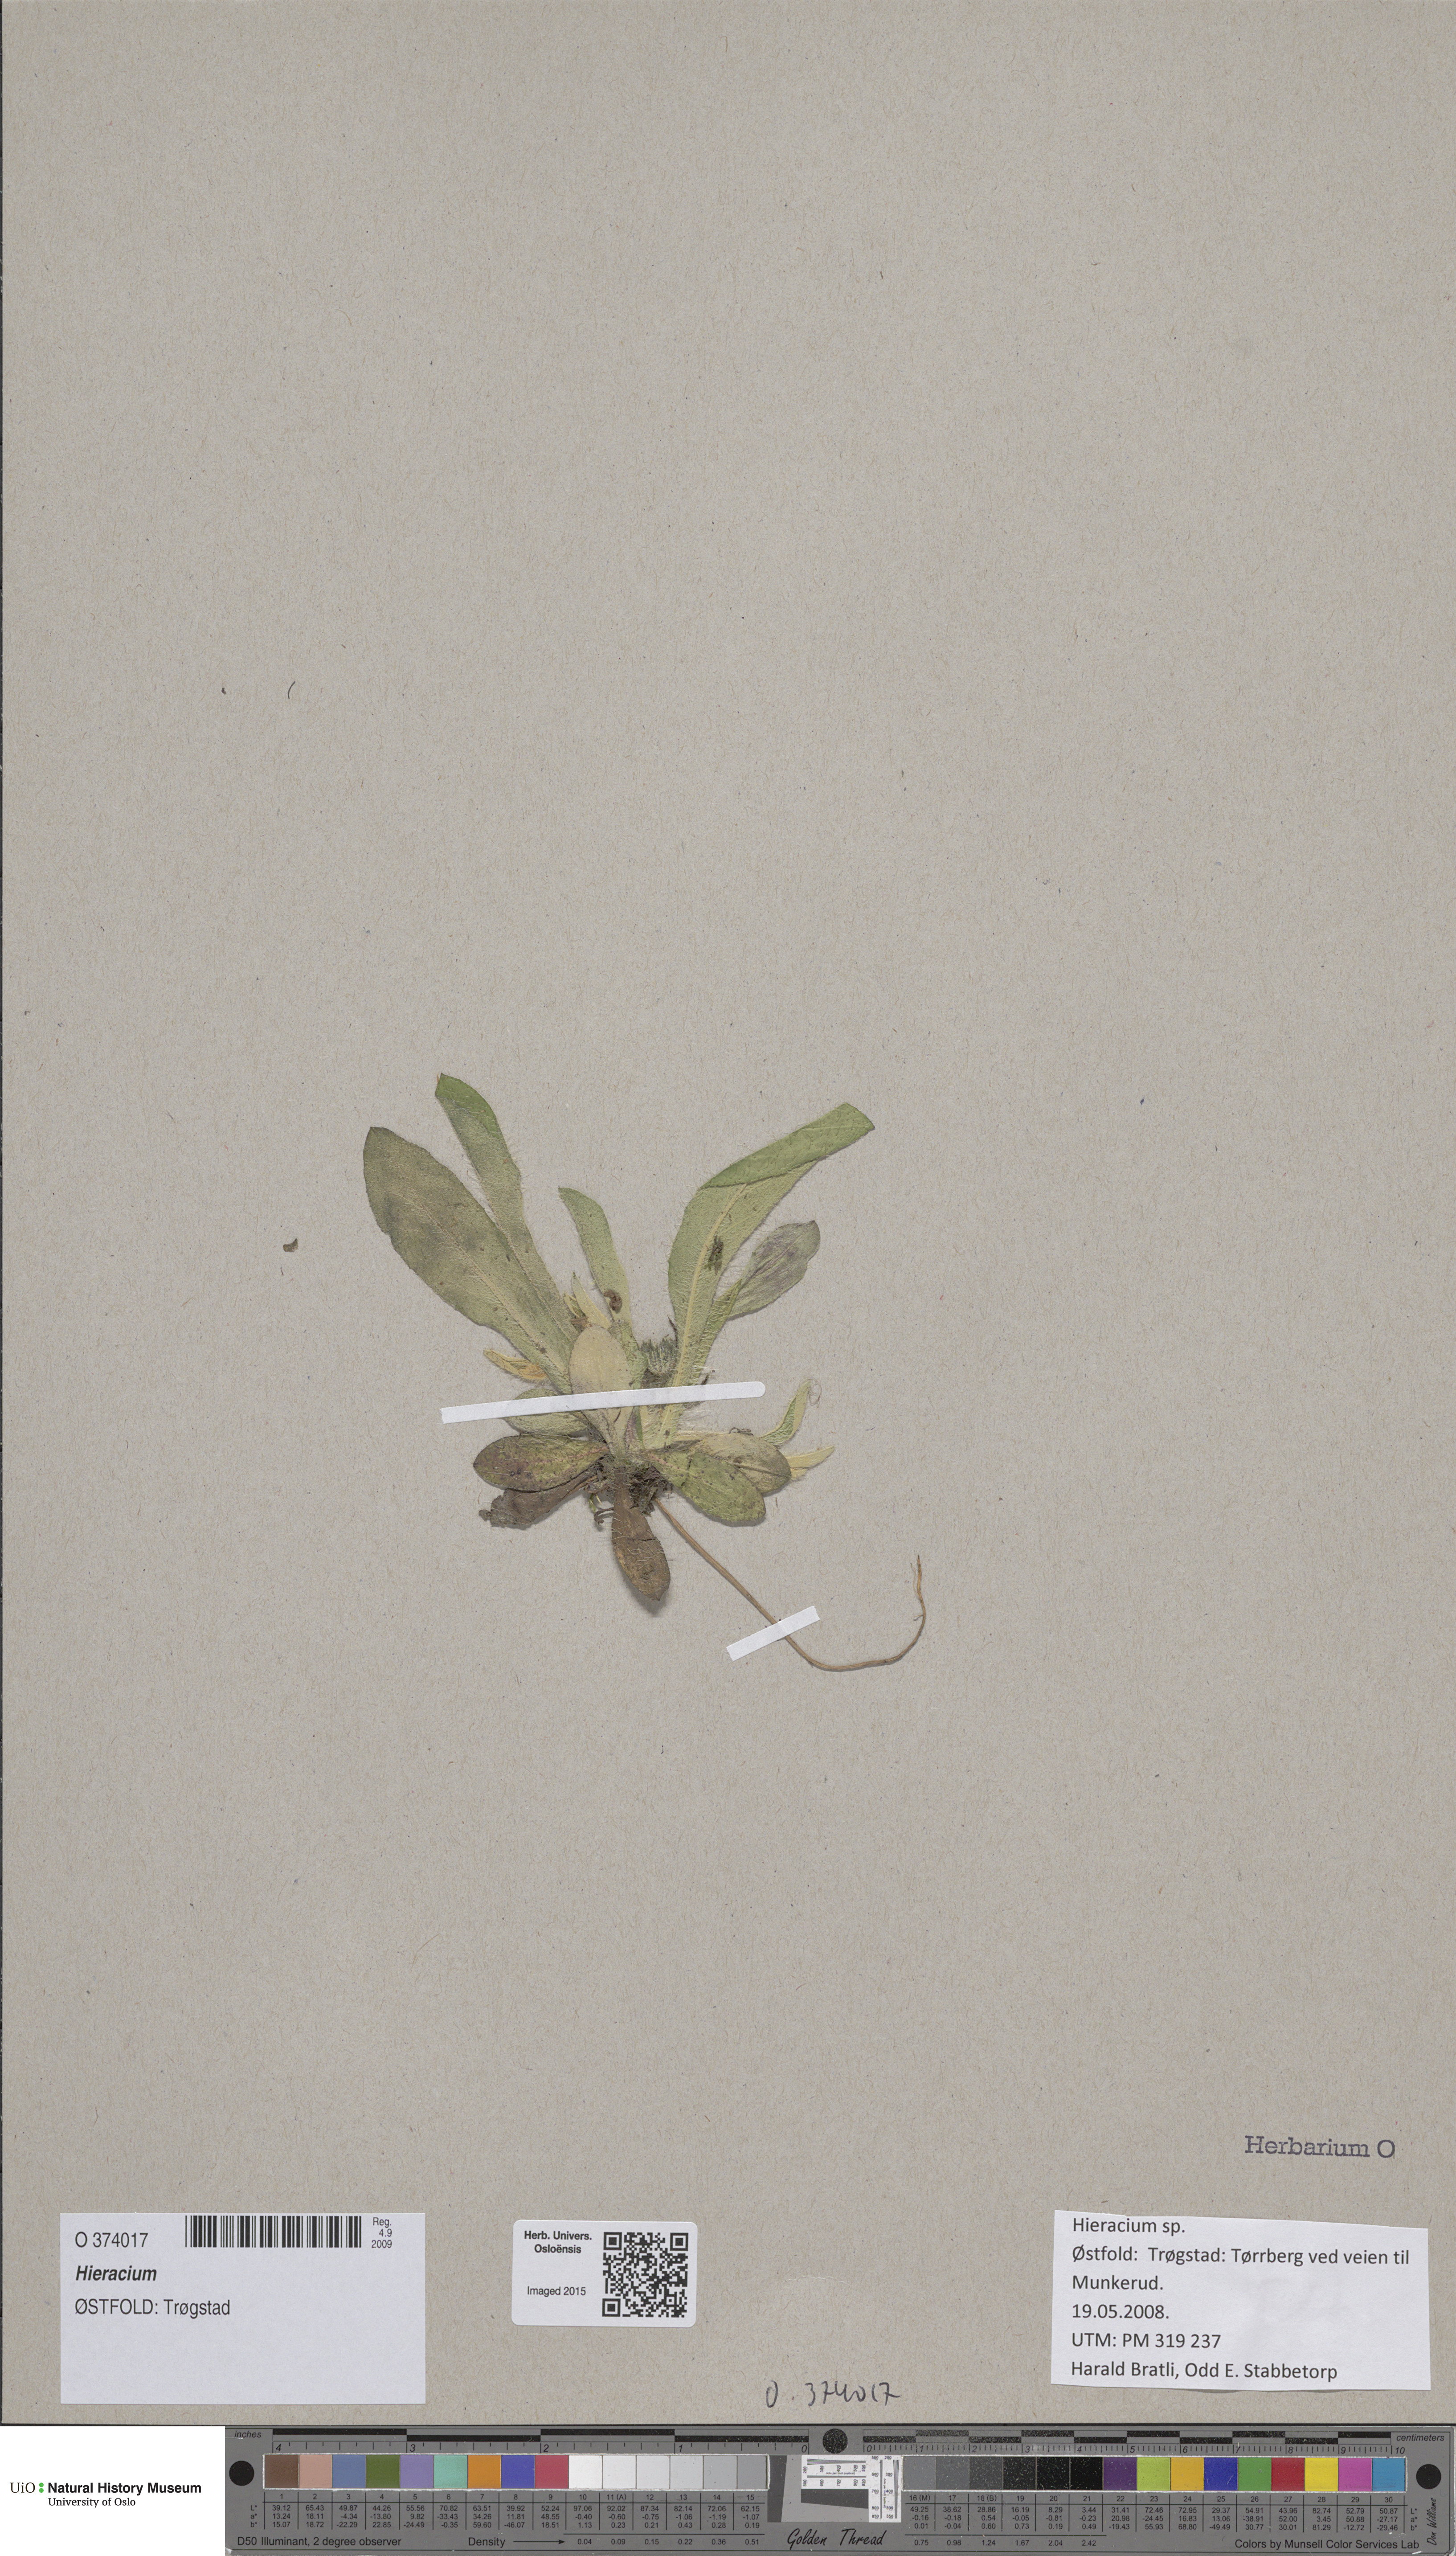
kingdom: Plantae
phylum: Tracheophyta
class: Magnoliopsida
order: Asterales
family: Asteraceae
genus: Hieracium
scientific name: Hieracium
